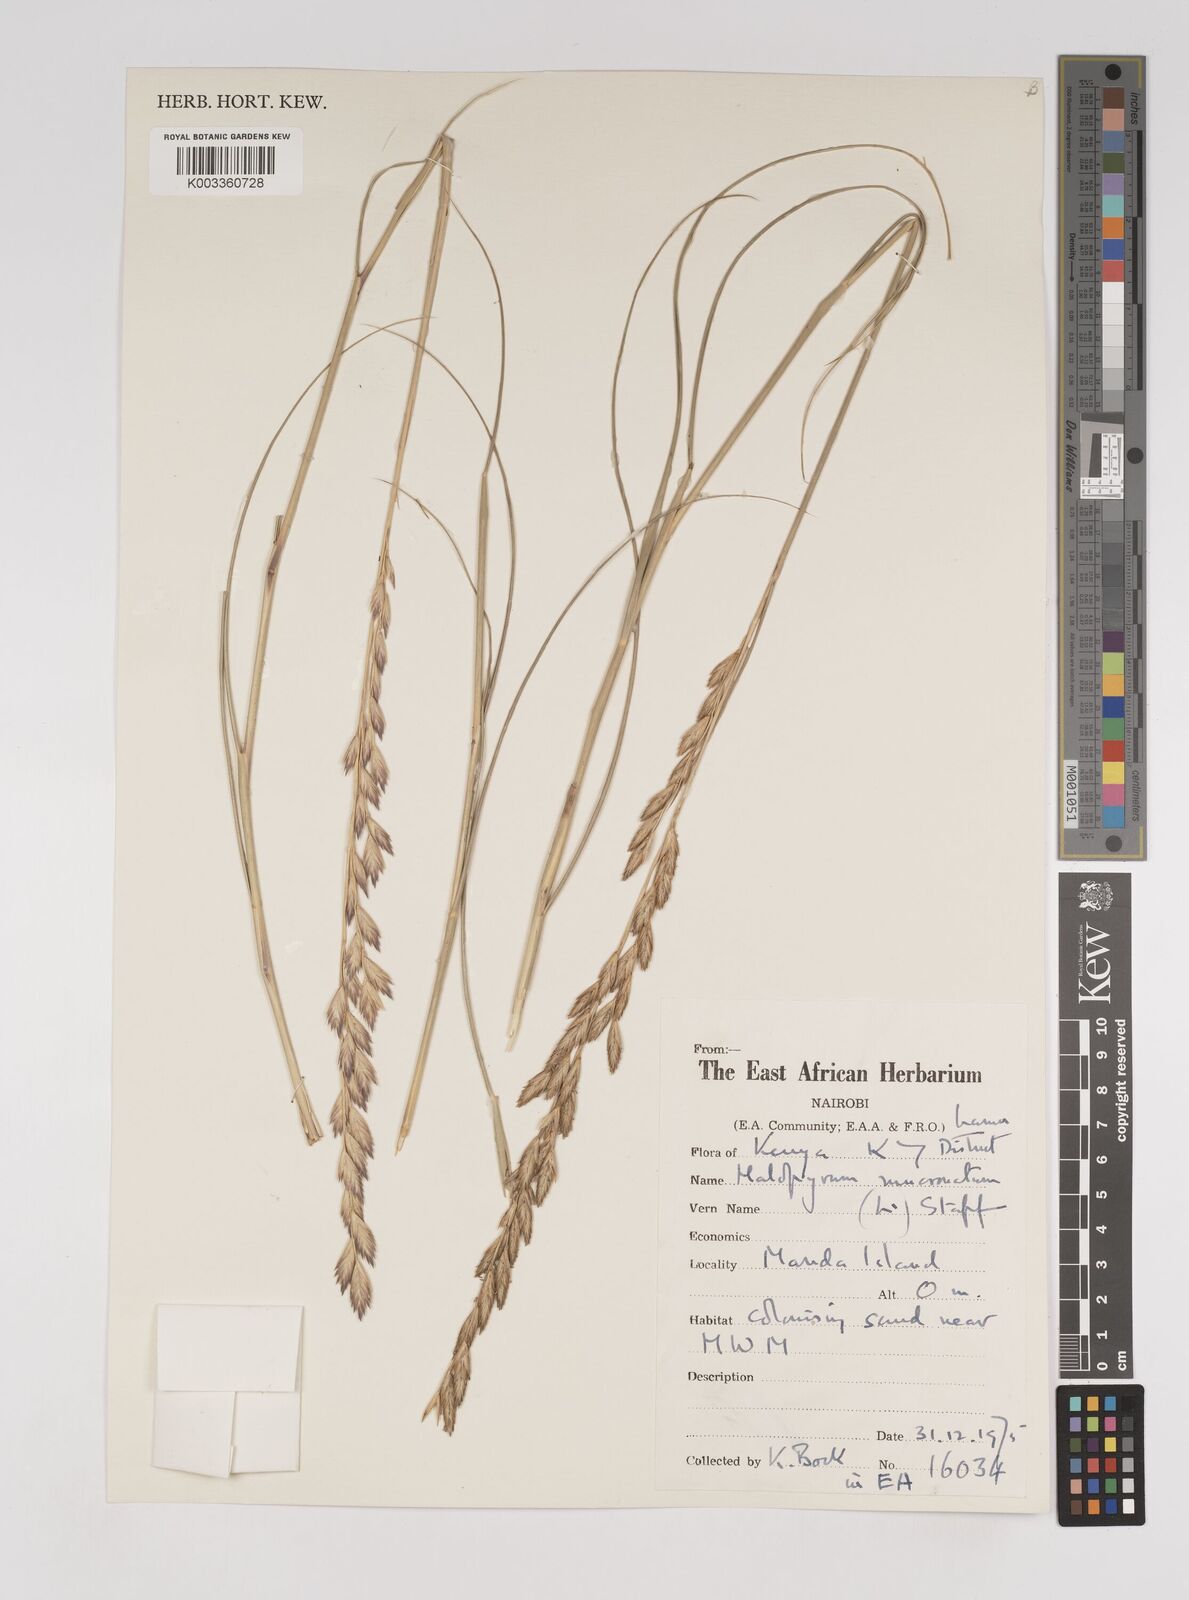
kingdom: Plantae
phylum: Tracheophyta
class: Liliopsida
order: Poales
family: Poaceae
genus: Halopyrum
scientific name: Halopyrum mucronatum
